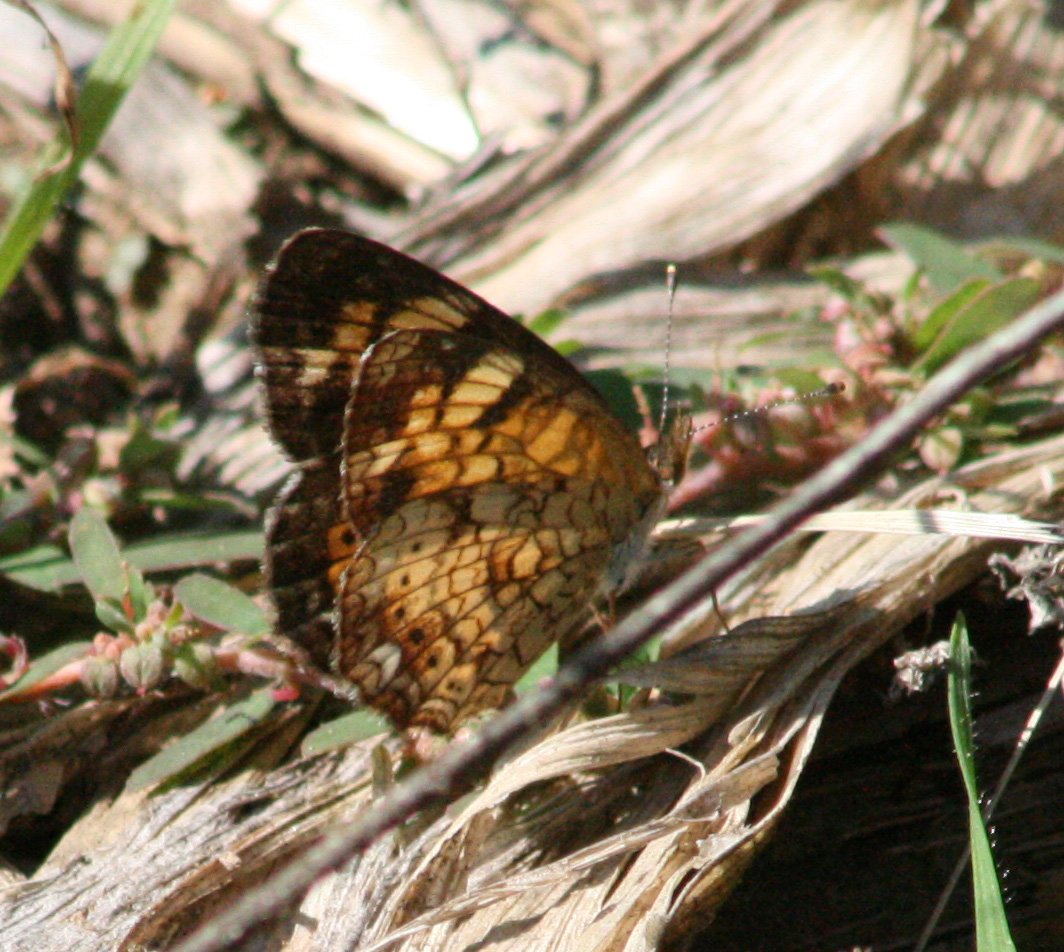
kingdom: Animalia
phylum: Arthropoda
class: Insecta
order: Lepidoptera
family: Nymphalidae
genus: Phyciodes
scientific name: Phyciodes tharos
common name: Northern Crescent
